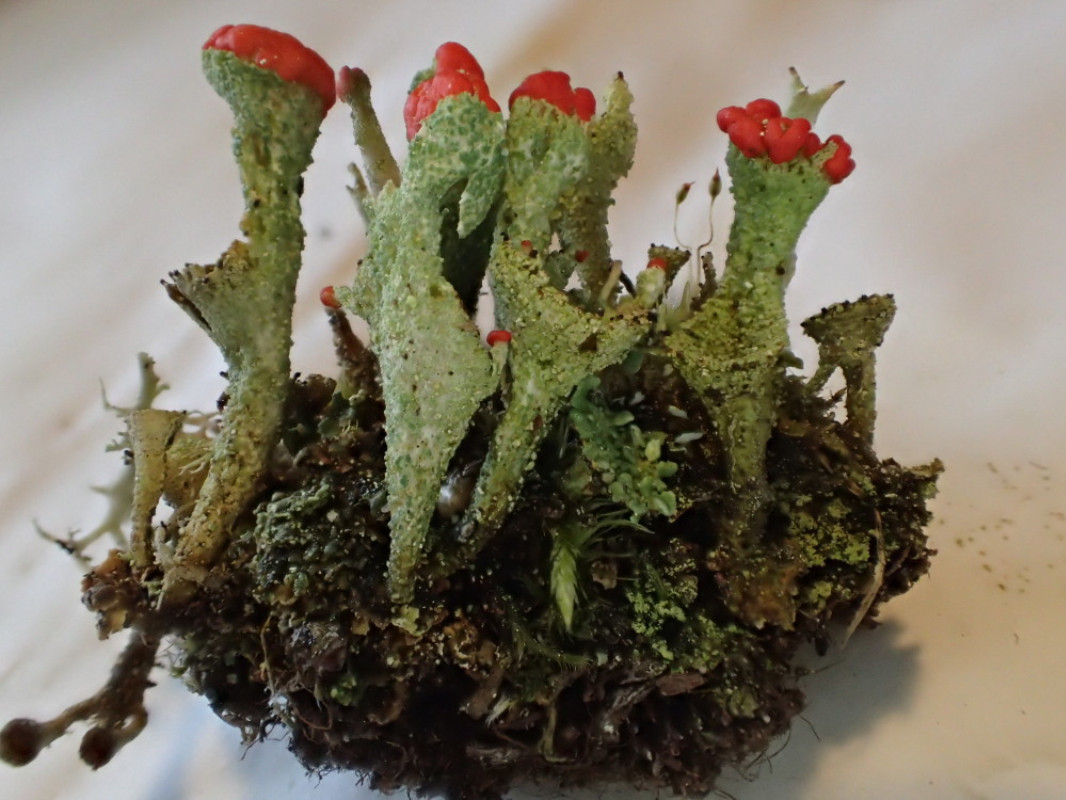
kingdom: Fungi
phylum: Ascomycota
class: Lecanoromycetes
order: Lecanorales
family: Cladoniaceae
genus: Cladonia
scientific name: Cladonia diversa
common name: rød bægerlav
